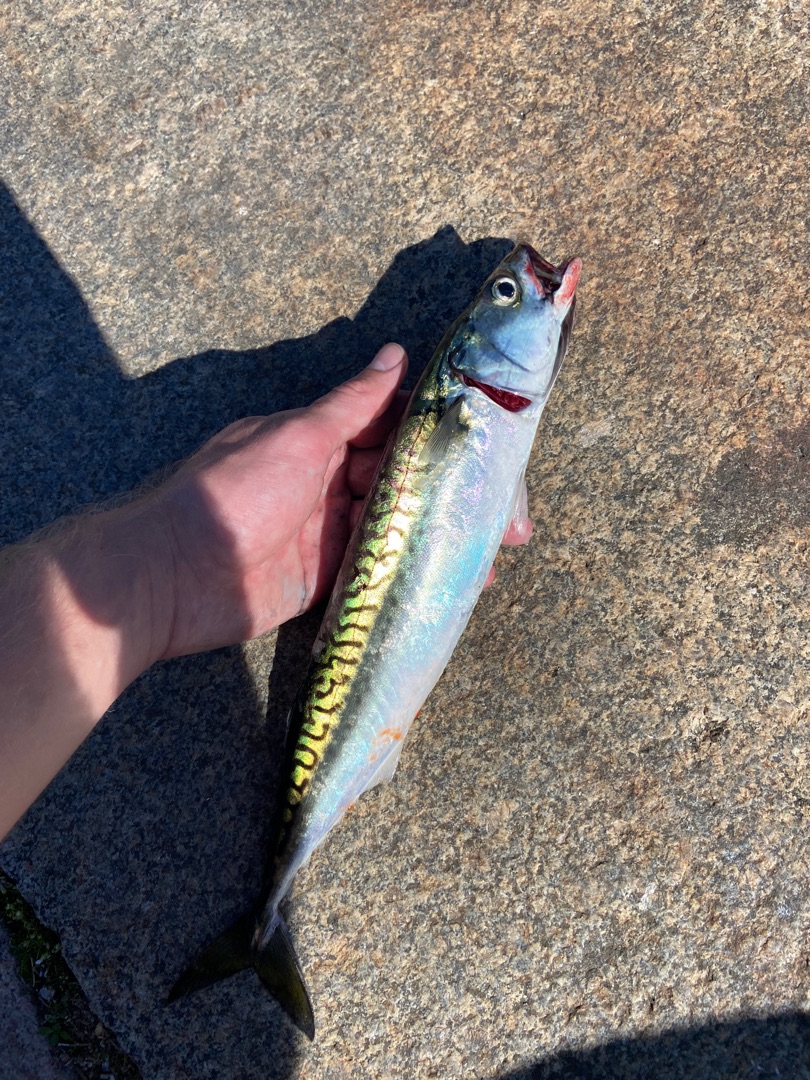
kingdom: Animalia
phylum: Chordata
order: Perciformes
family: Scombridae
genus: Scomber
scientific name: Scomber scombrus
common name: Makrel
